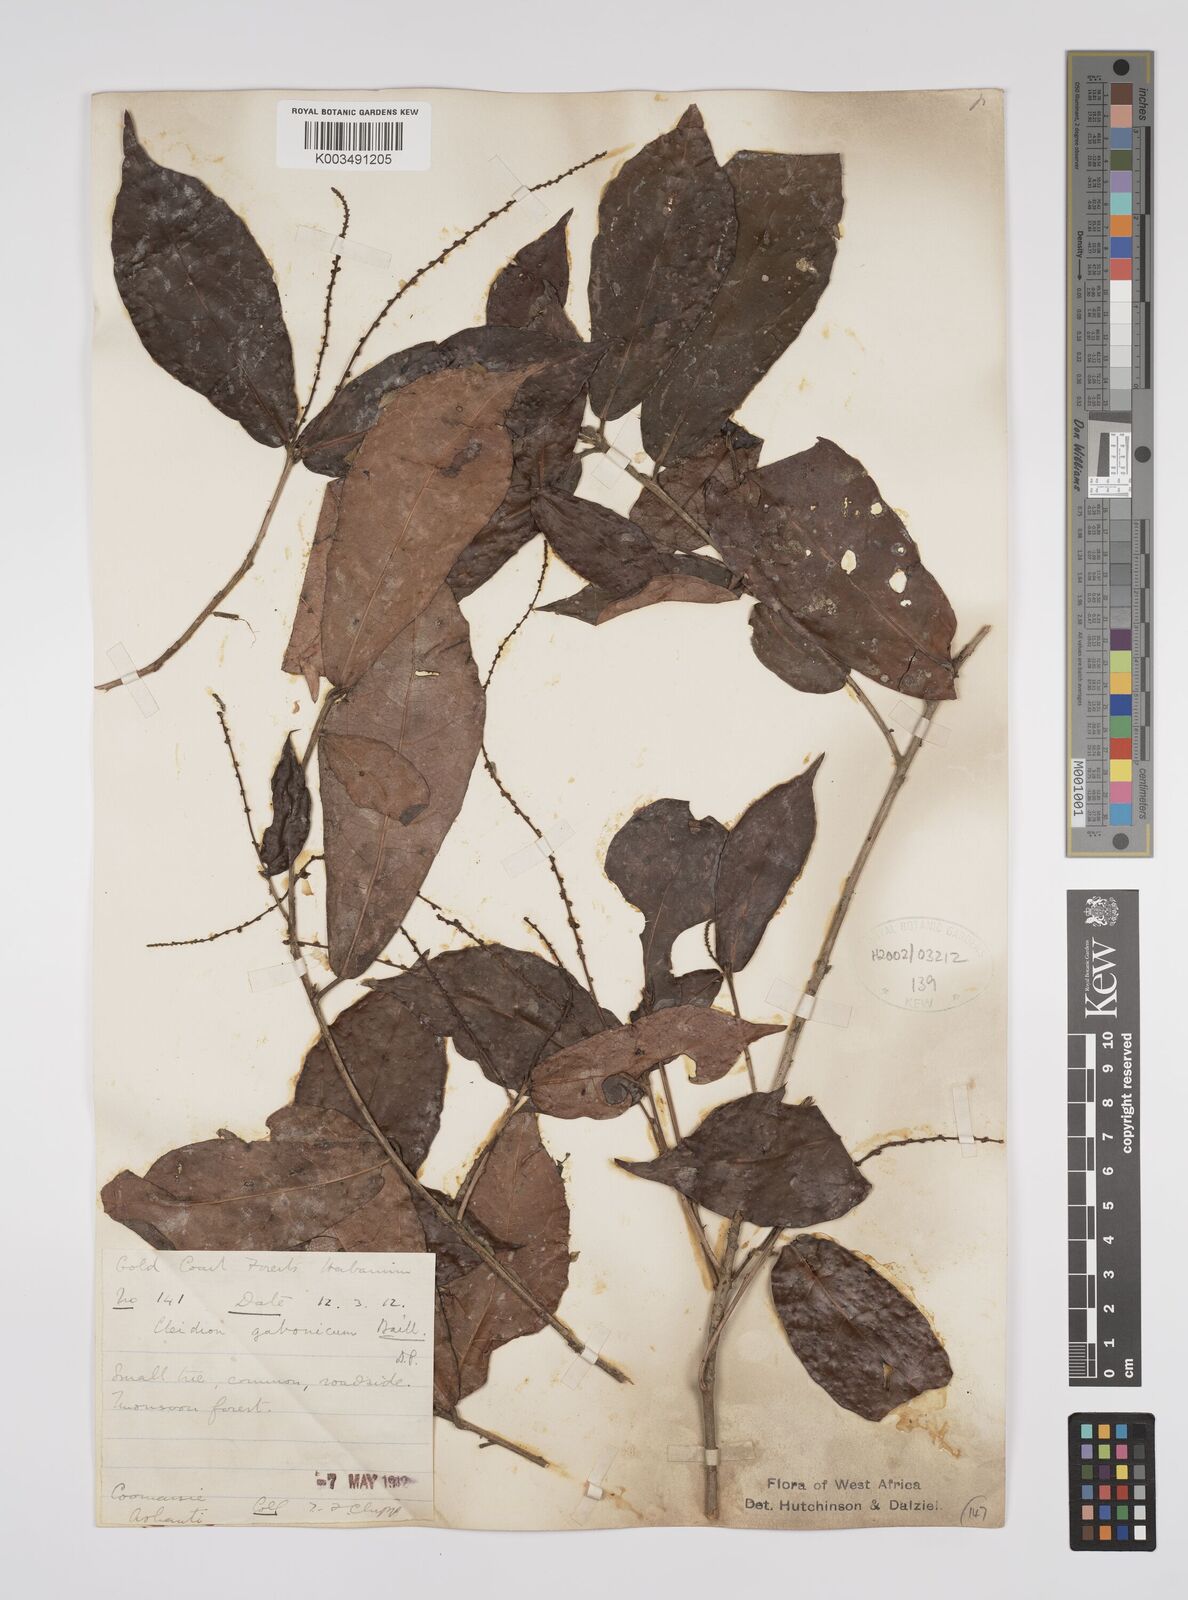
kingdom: Plantae
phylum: Tracheophyta
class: Magnoliopsida
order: Malpighiales
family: Euphorbiaceae
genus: Cleidion
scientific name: Cleidion gabonicum
